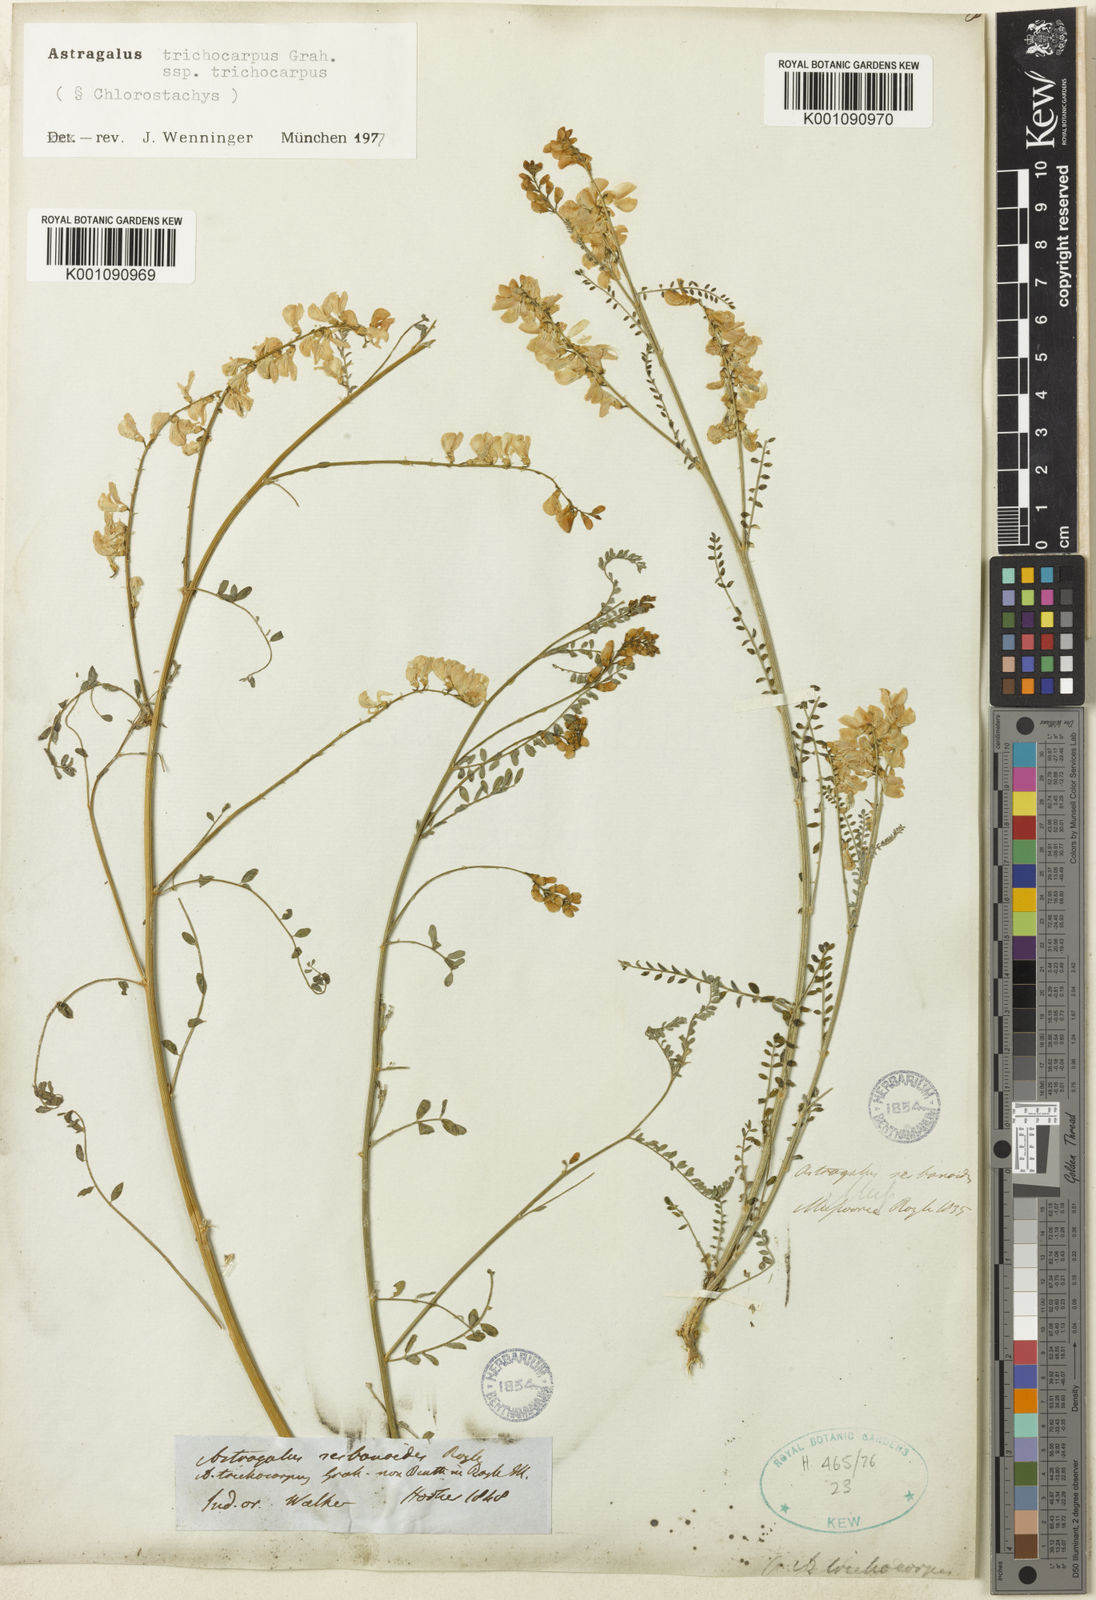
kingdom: Plantae
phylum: Tracheophyta
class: Magnoliopsida
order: Fabales
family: Fabaceae
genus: Astragalus
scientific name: Astragalus
